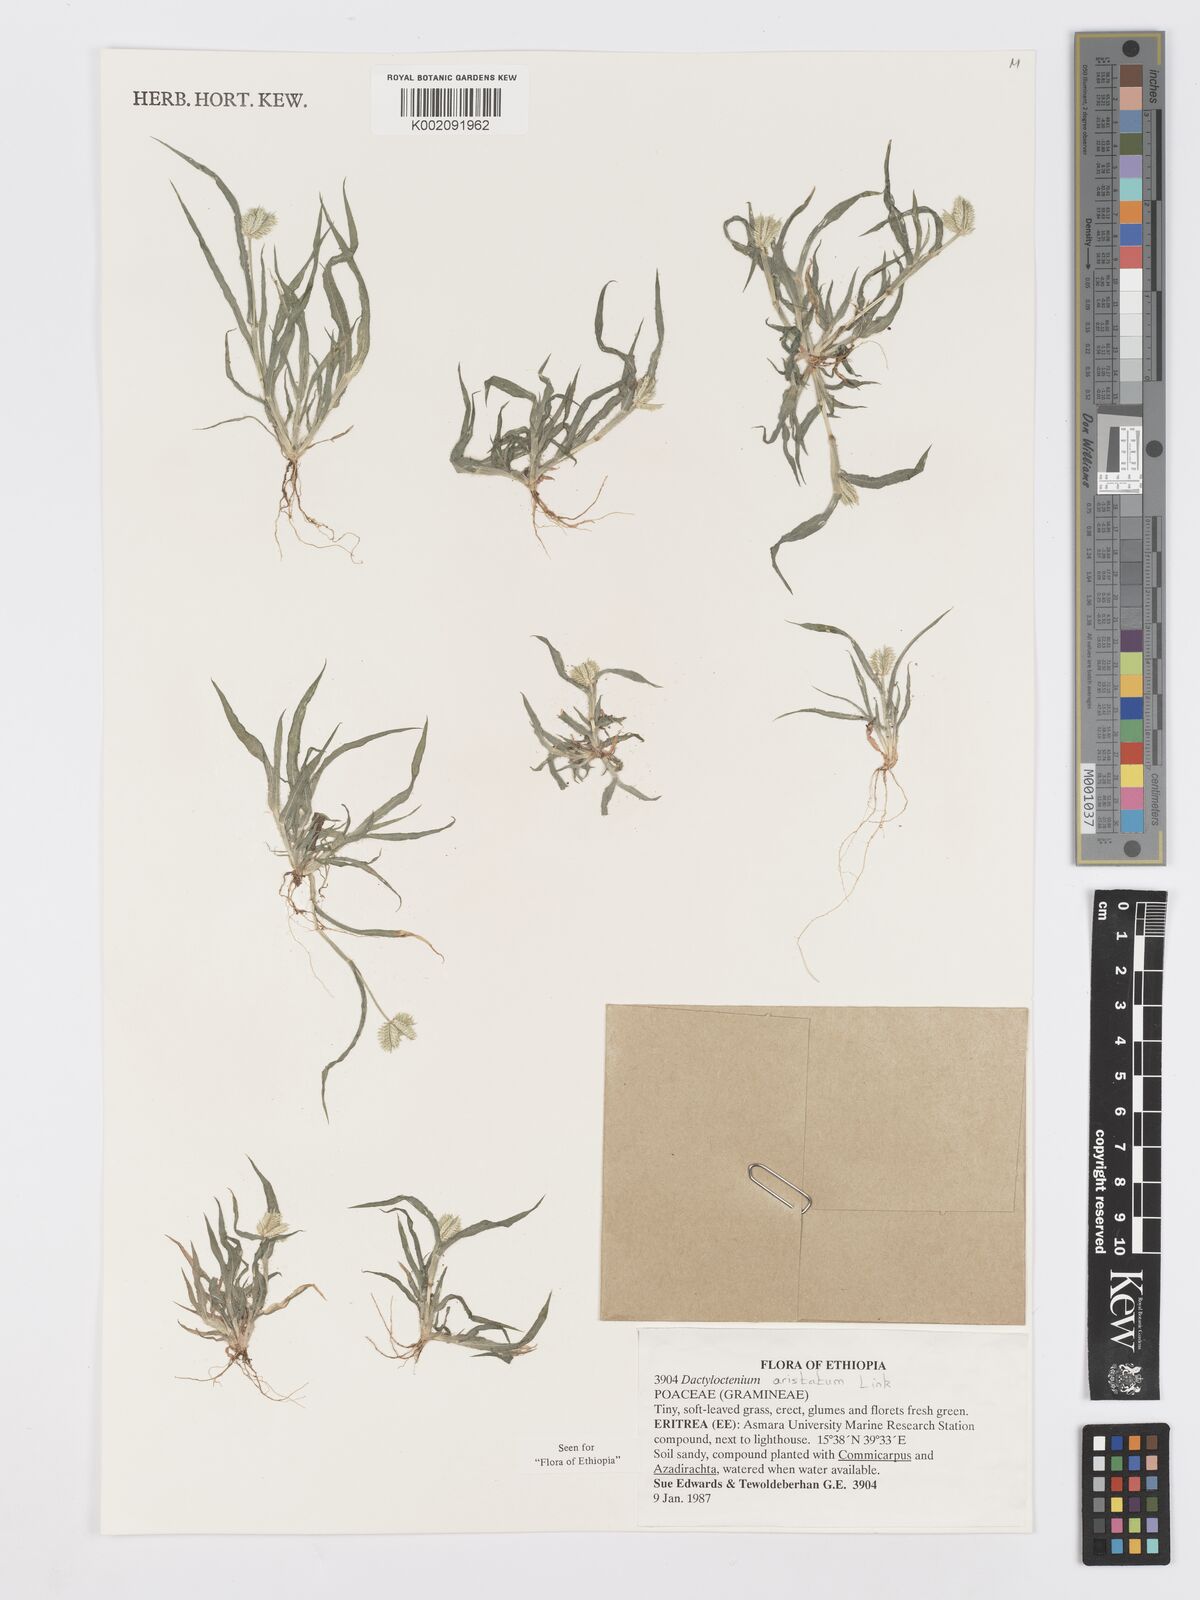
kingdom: Plantae
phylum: Tracheophyta
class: Liliopsida
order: Poales
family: Poaceae
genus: Dactyloctenium
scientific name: Dactyloctenium aristatum
